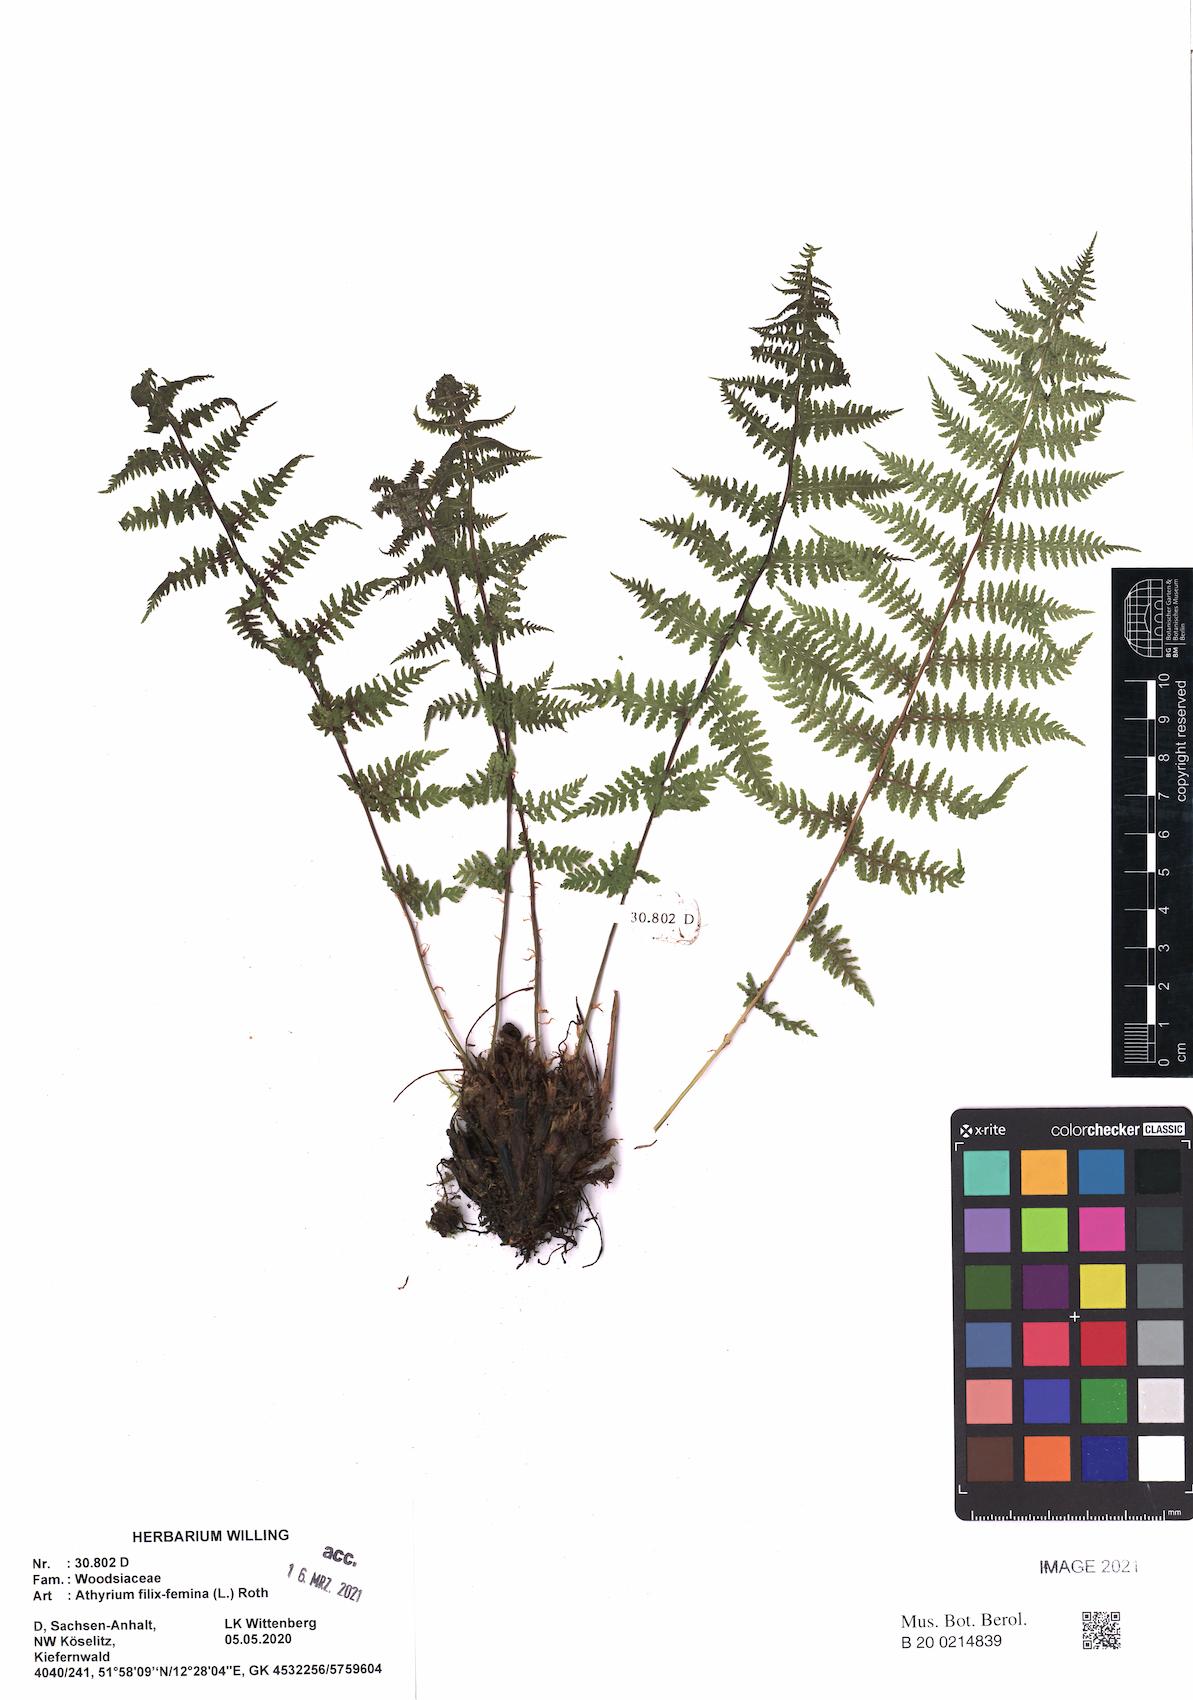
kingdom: Plantae
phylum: Tracheophyta
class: Polypodiopsida
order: Polypodiales
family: Athyriaceae
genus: Athyrium
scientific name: Athyrium filix-femina
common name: Lady fern
